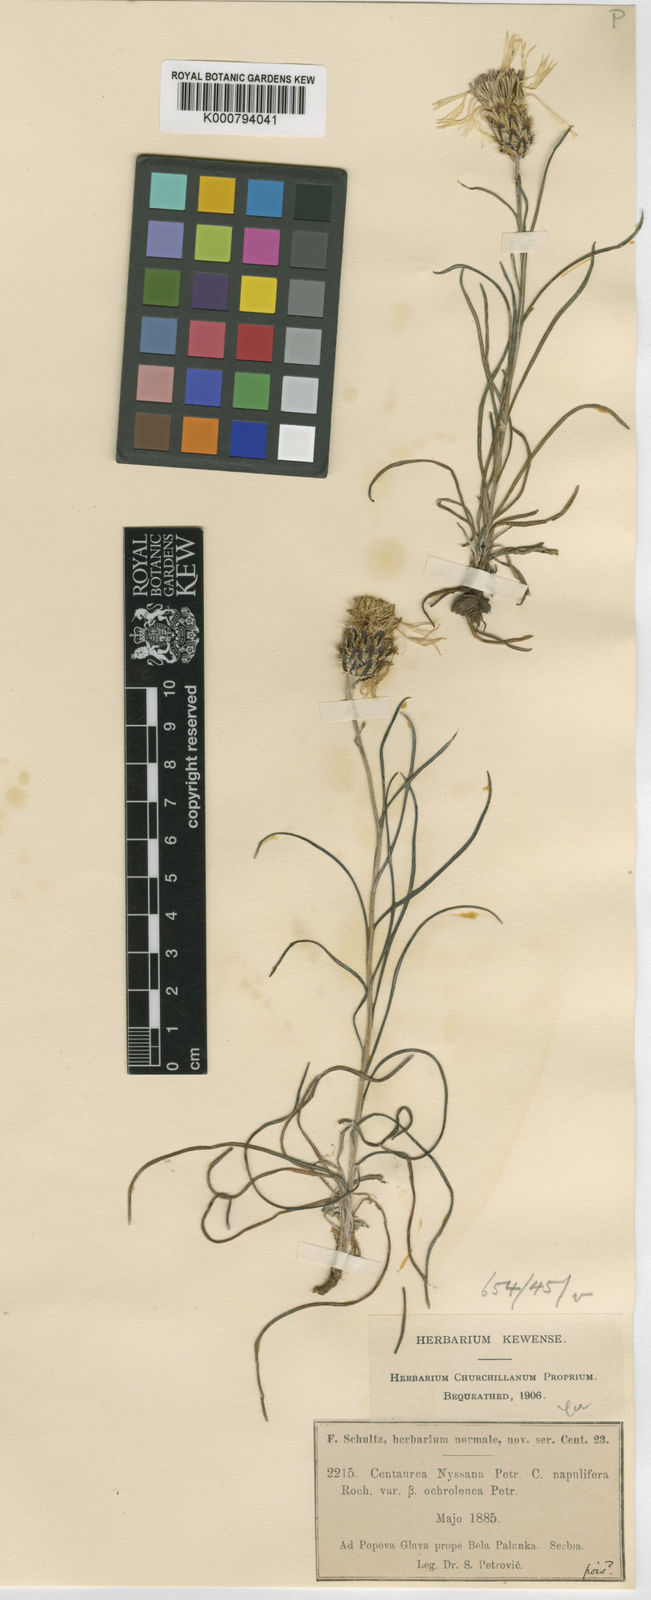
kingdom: Plantae
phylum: Tracheophyta
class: Magnoliopsida
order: Asterales
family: Asteraceae
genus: Centaurea
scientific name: Centaurea napulifera
